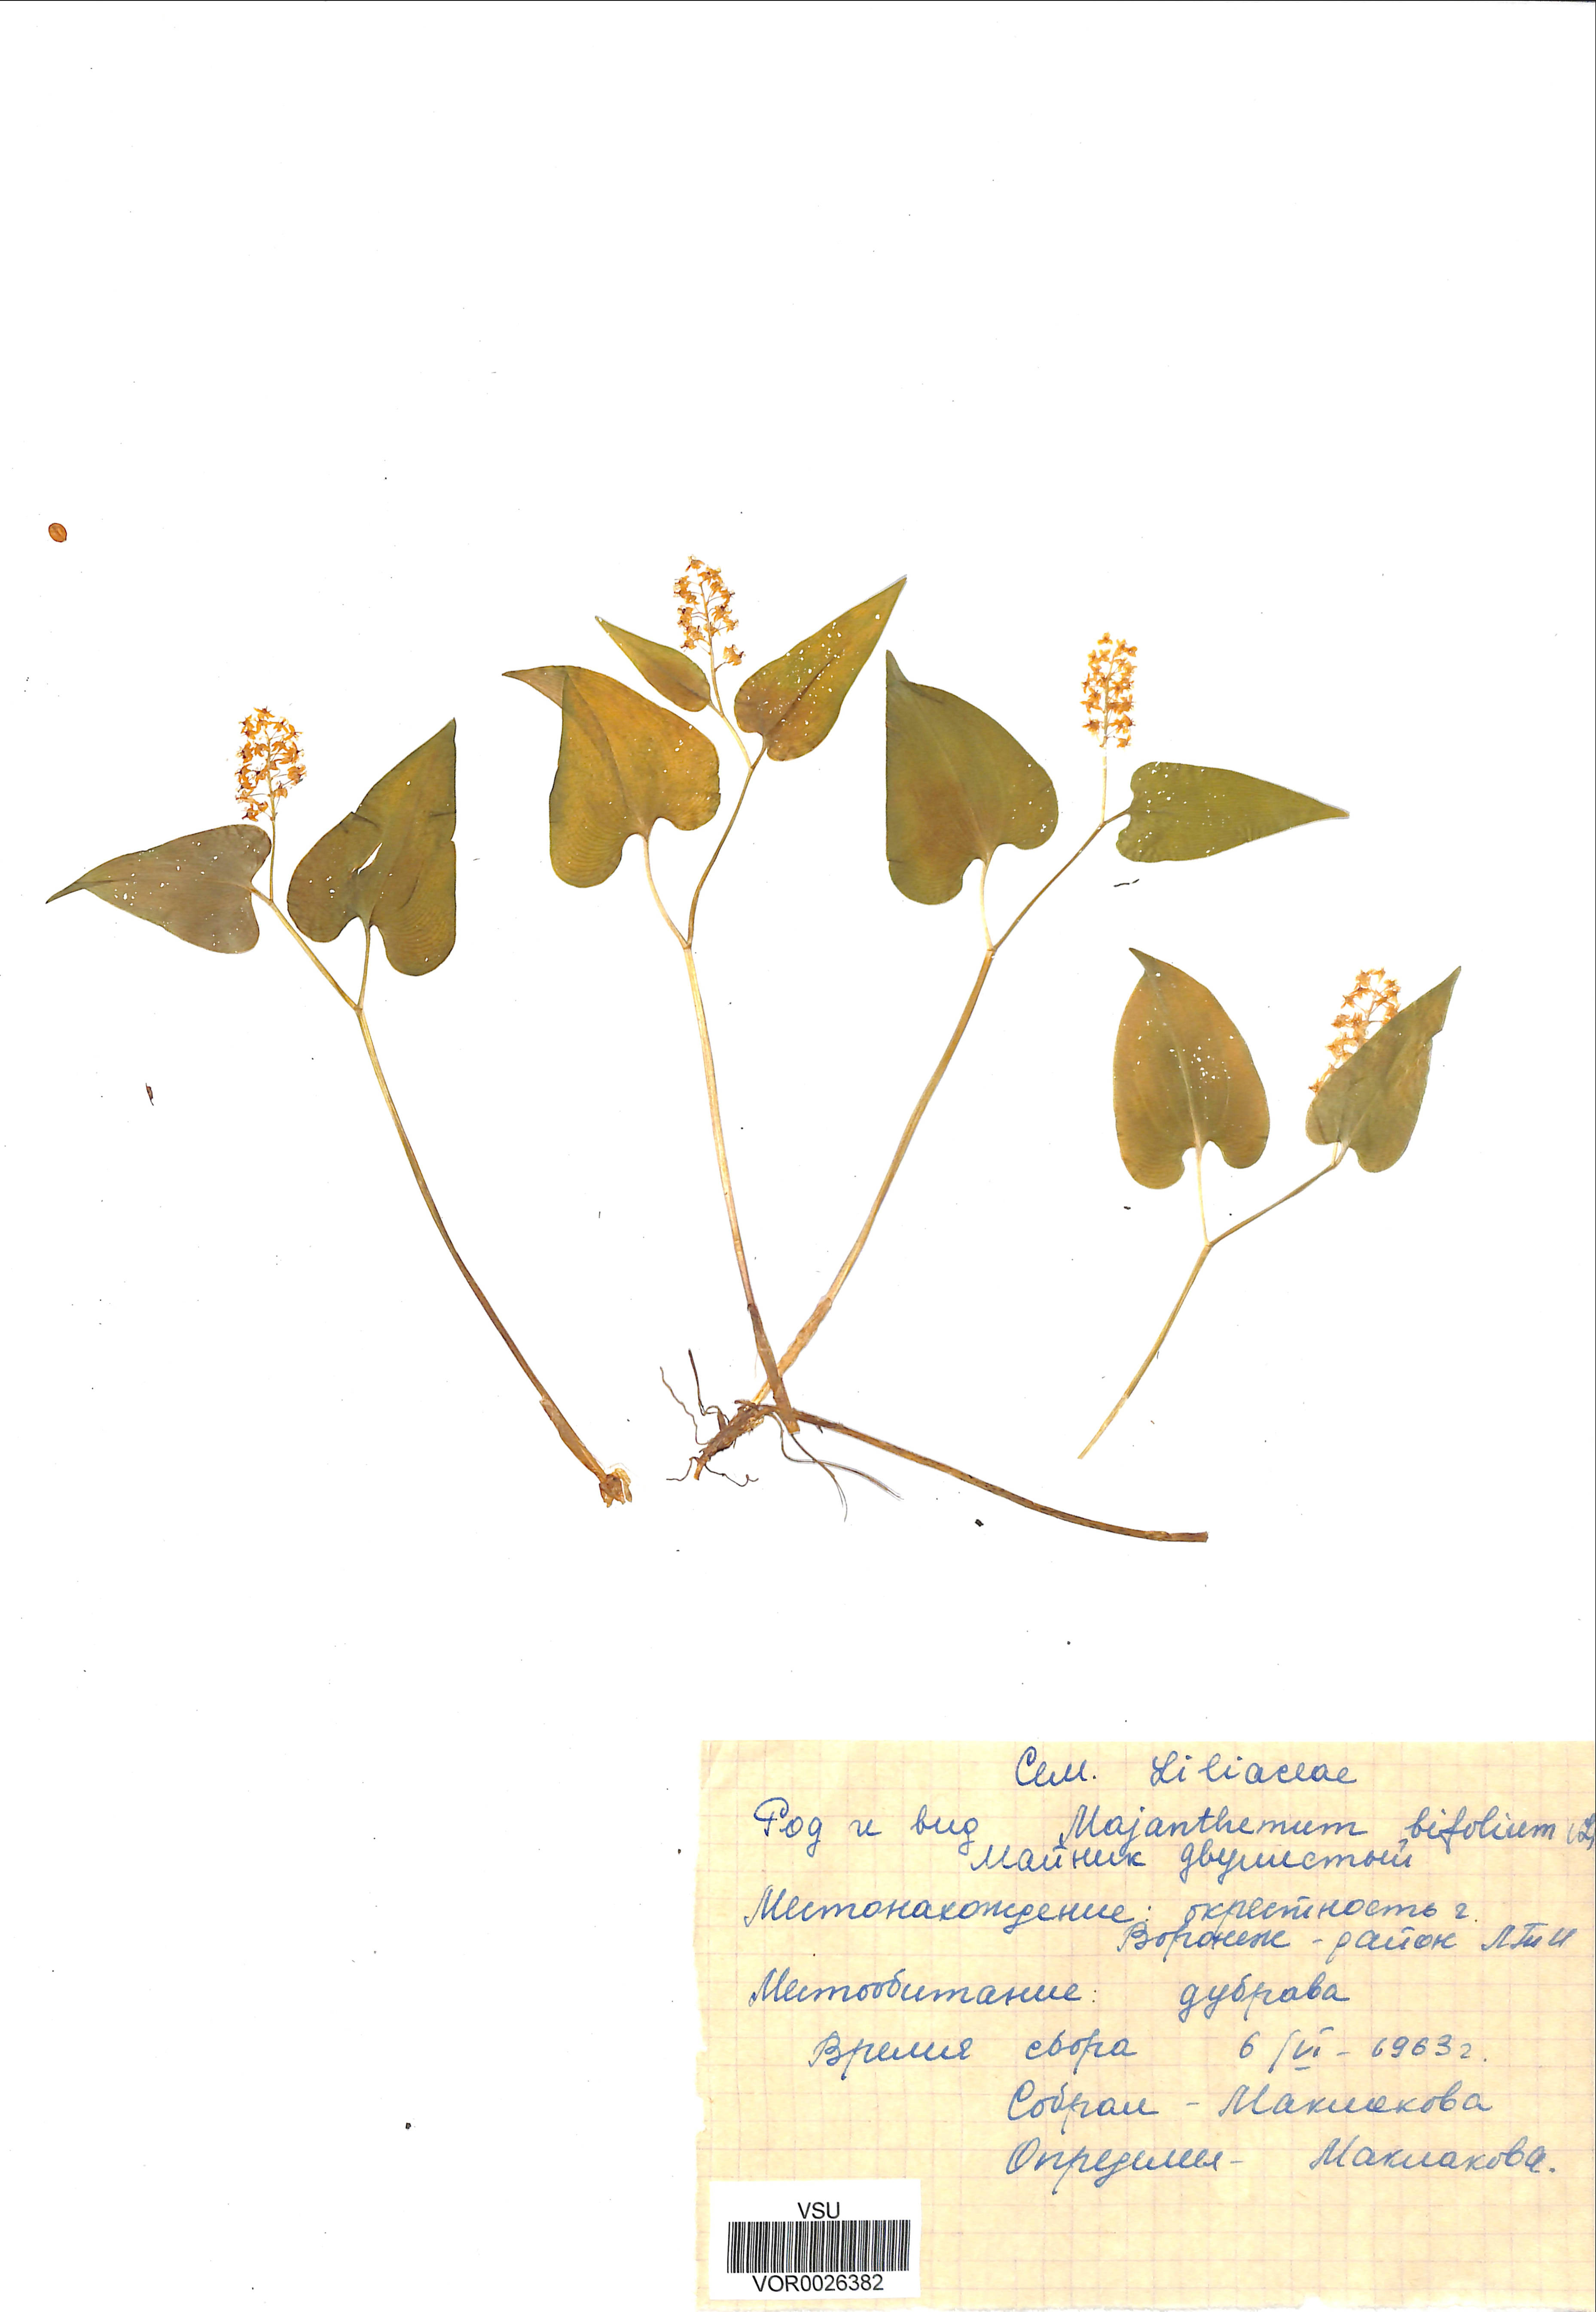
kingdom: Plantae
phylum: Tracheophyta
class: Liliopsida
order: Asparagales
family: Asparagaceae
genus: Maianthemum
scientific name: Maianthemum bifolium
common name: May lily
